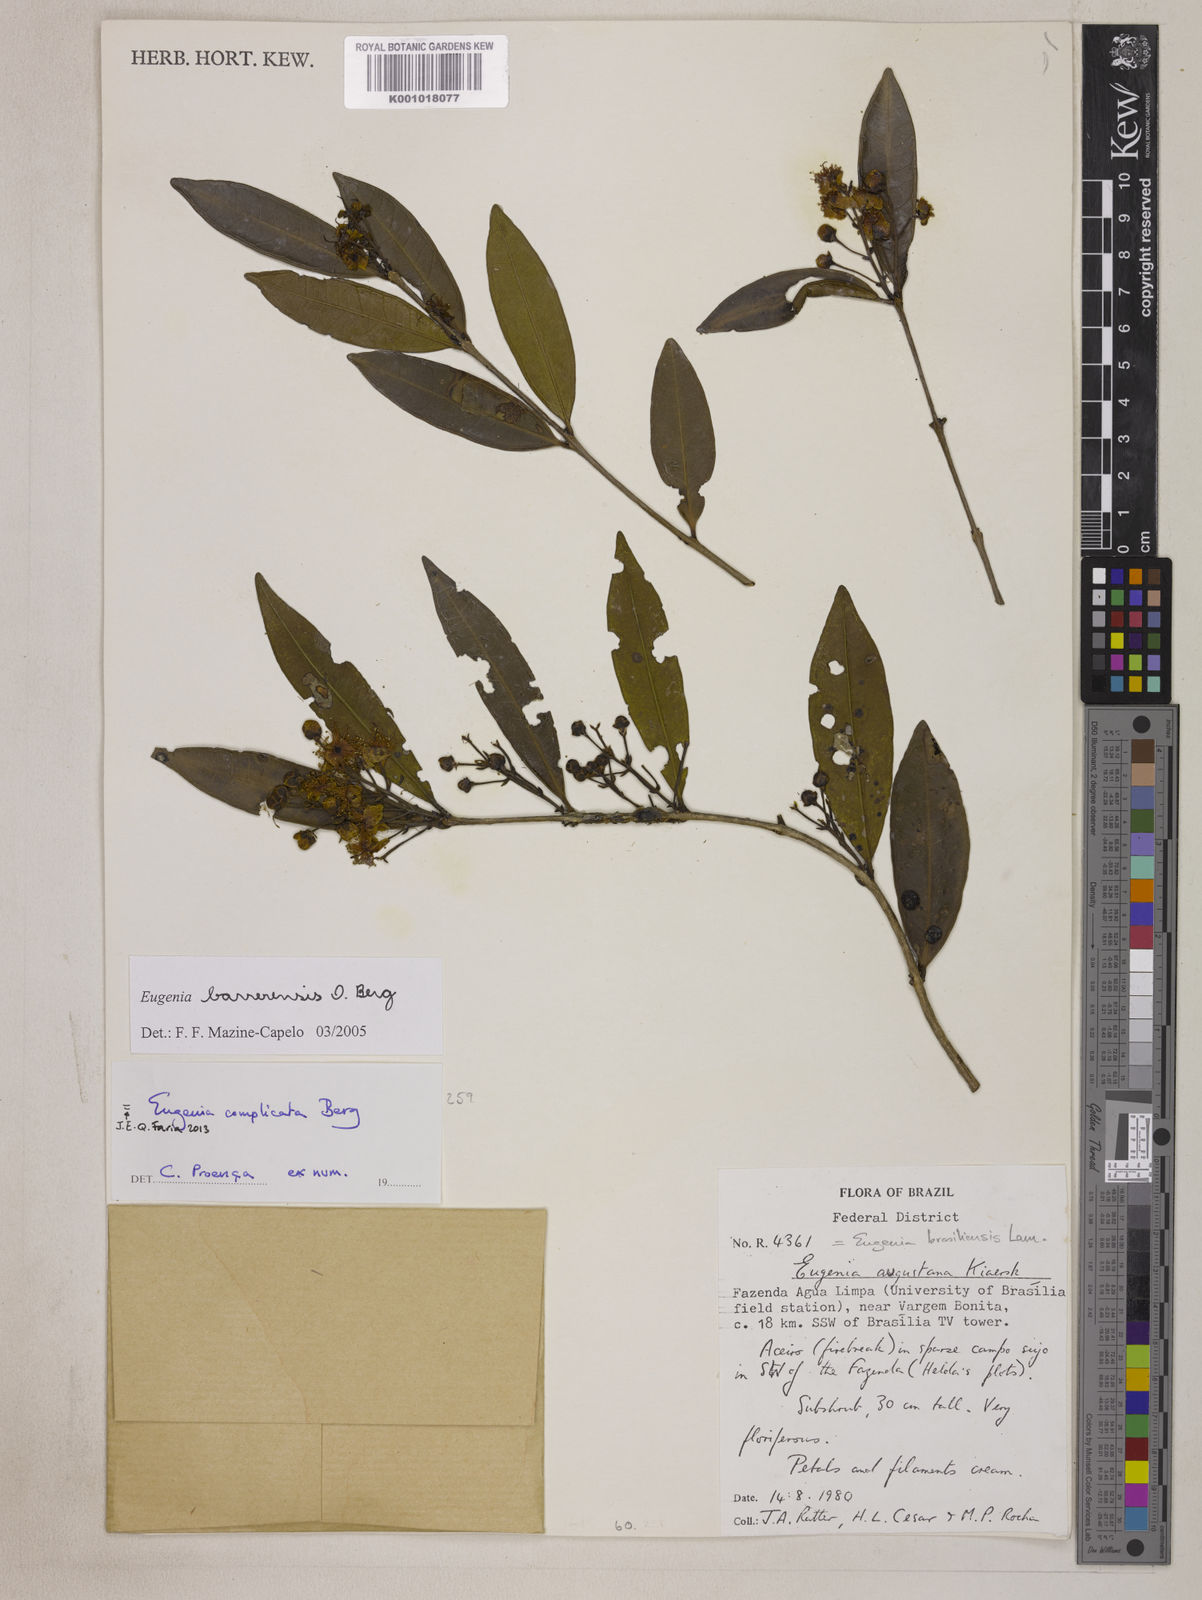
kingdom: Plantae
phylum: Tracheophyta
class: Magnoliopsida
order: Myrtales
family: Myrtaceae
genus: Eugenia
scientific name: Eugenia complicata
